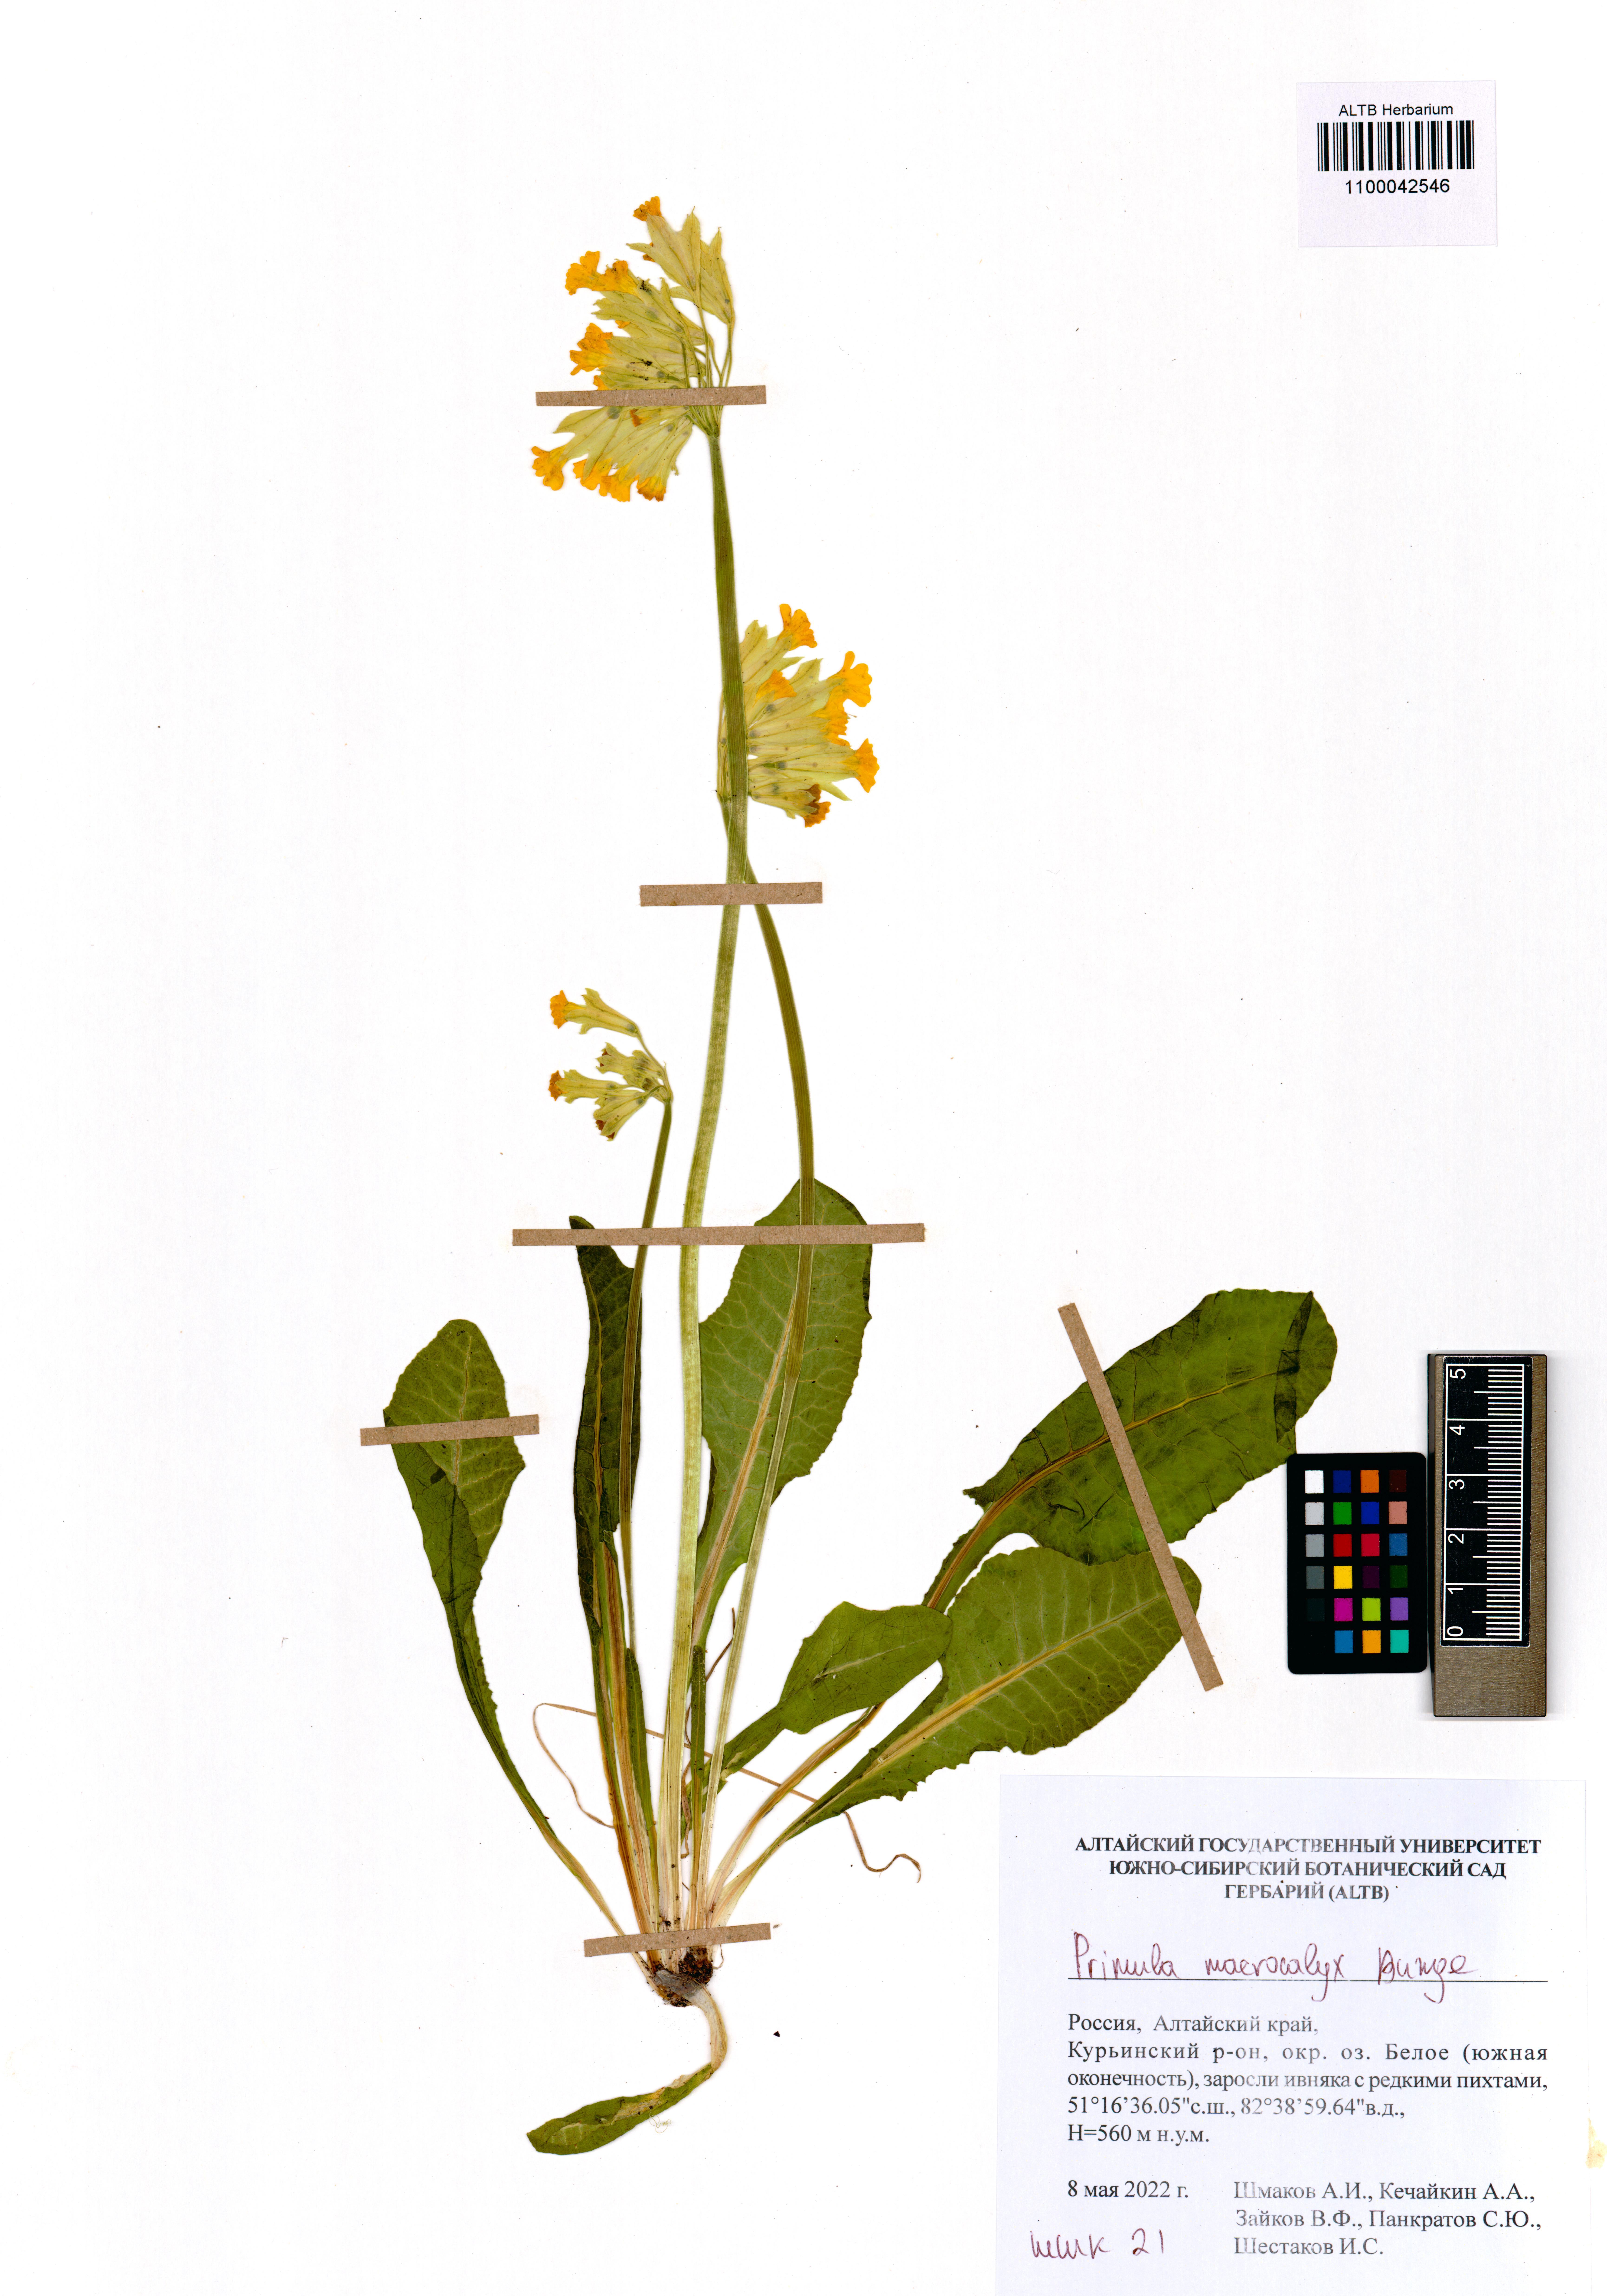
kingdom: Plantae
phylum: Tracheophyta
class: Magnoliopsida
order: Ericales
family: Primulaceae
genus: Primula
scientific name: Primula veris
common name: Cowslip
